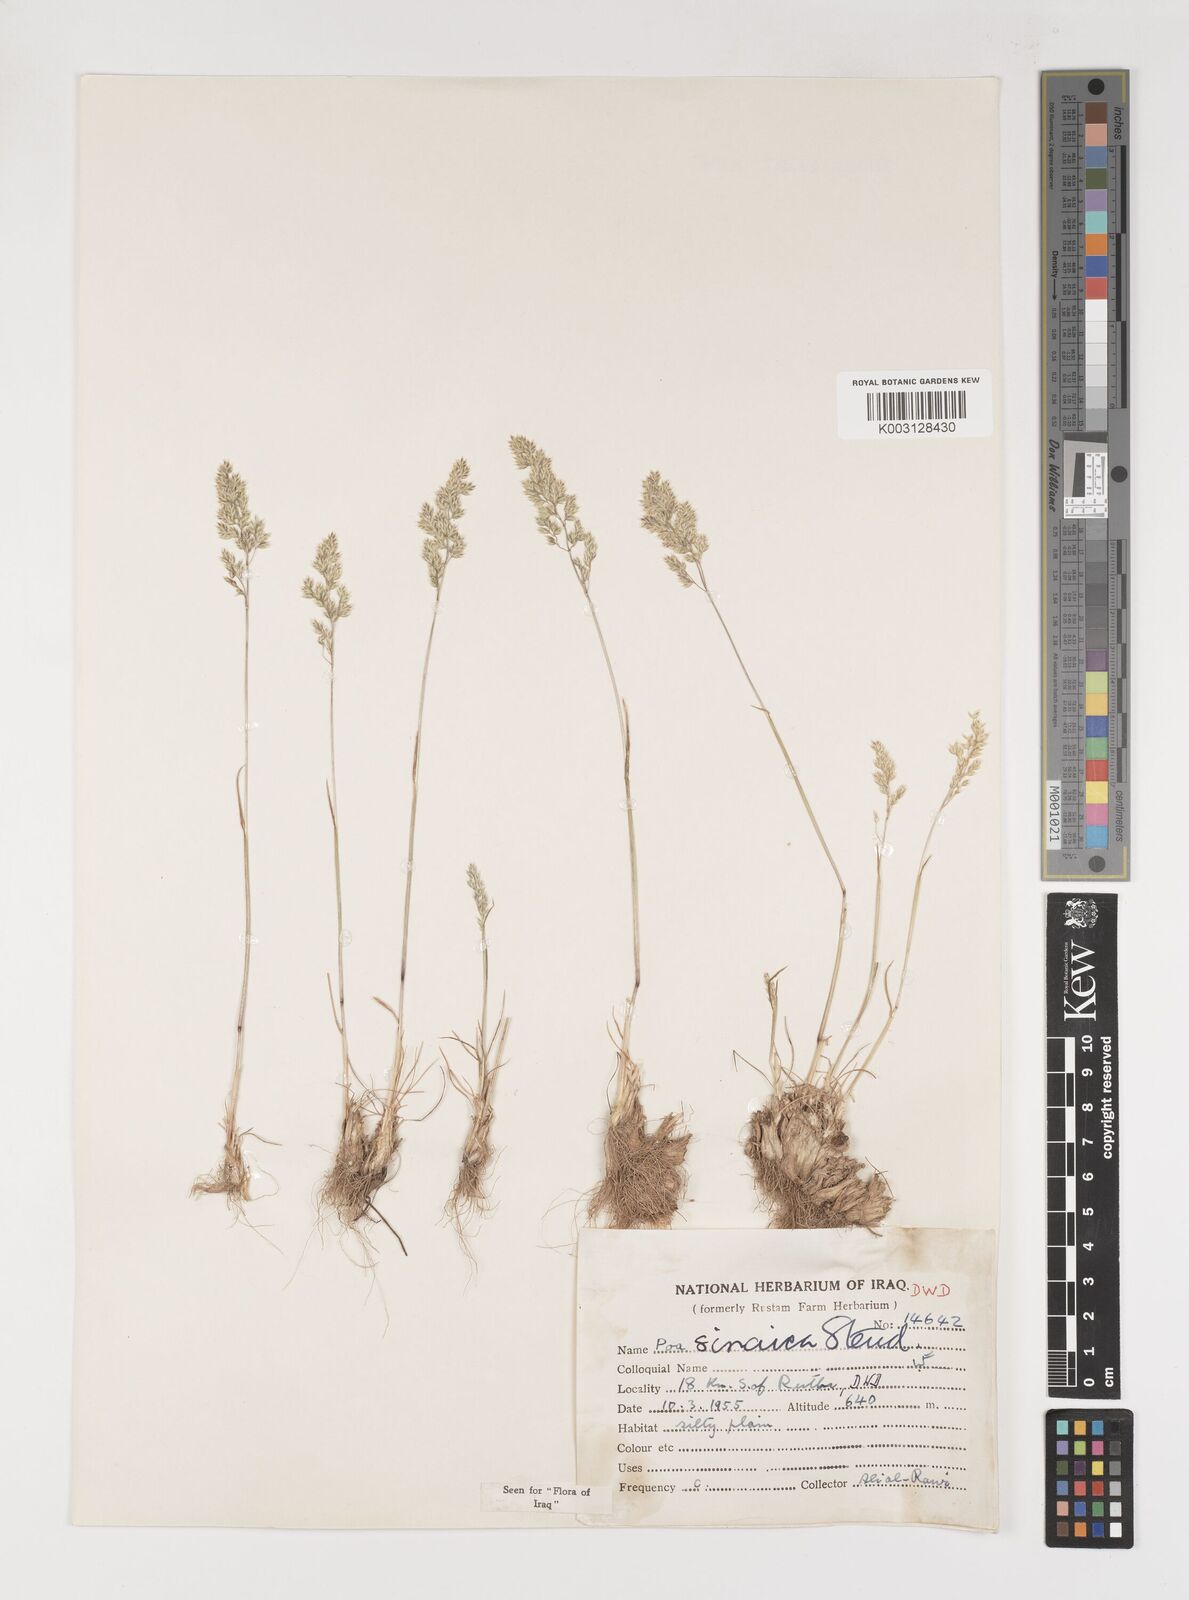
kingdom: Plantae
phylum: Tracheophyta
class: Liliopsida
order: Poales
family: Poaceae
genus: Poa
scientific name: Poa sinaica
